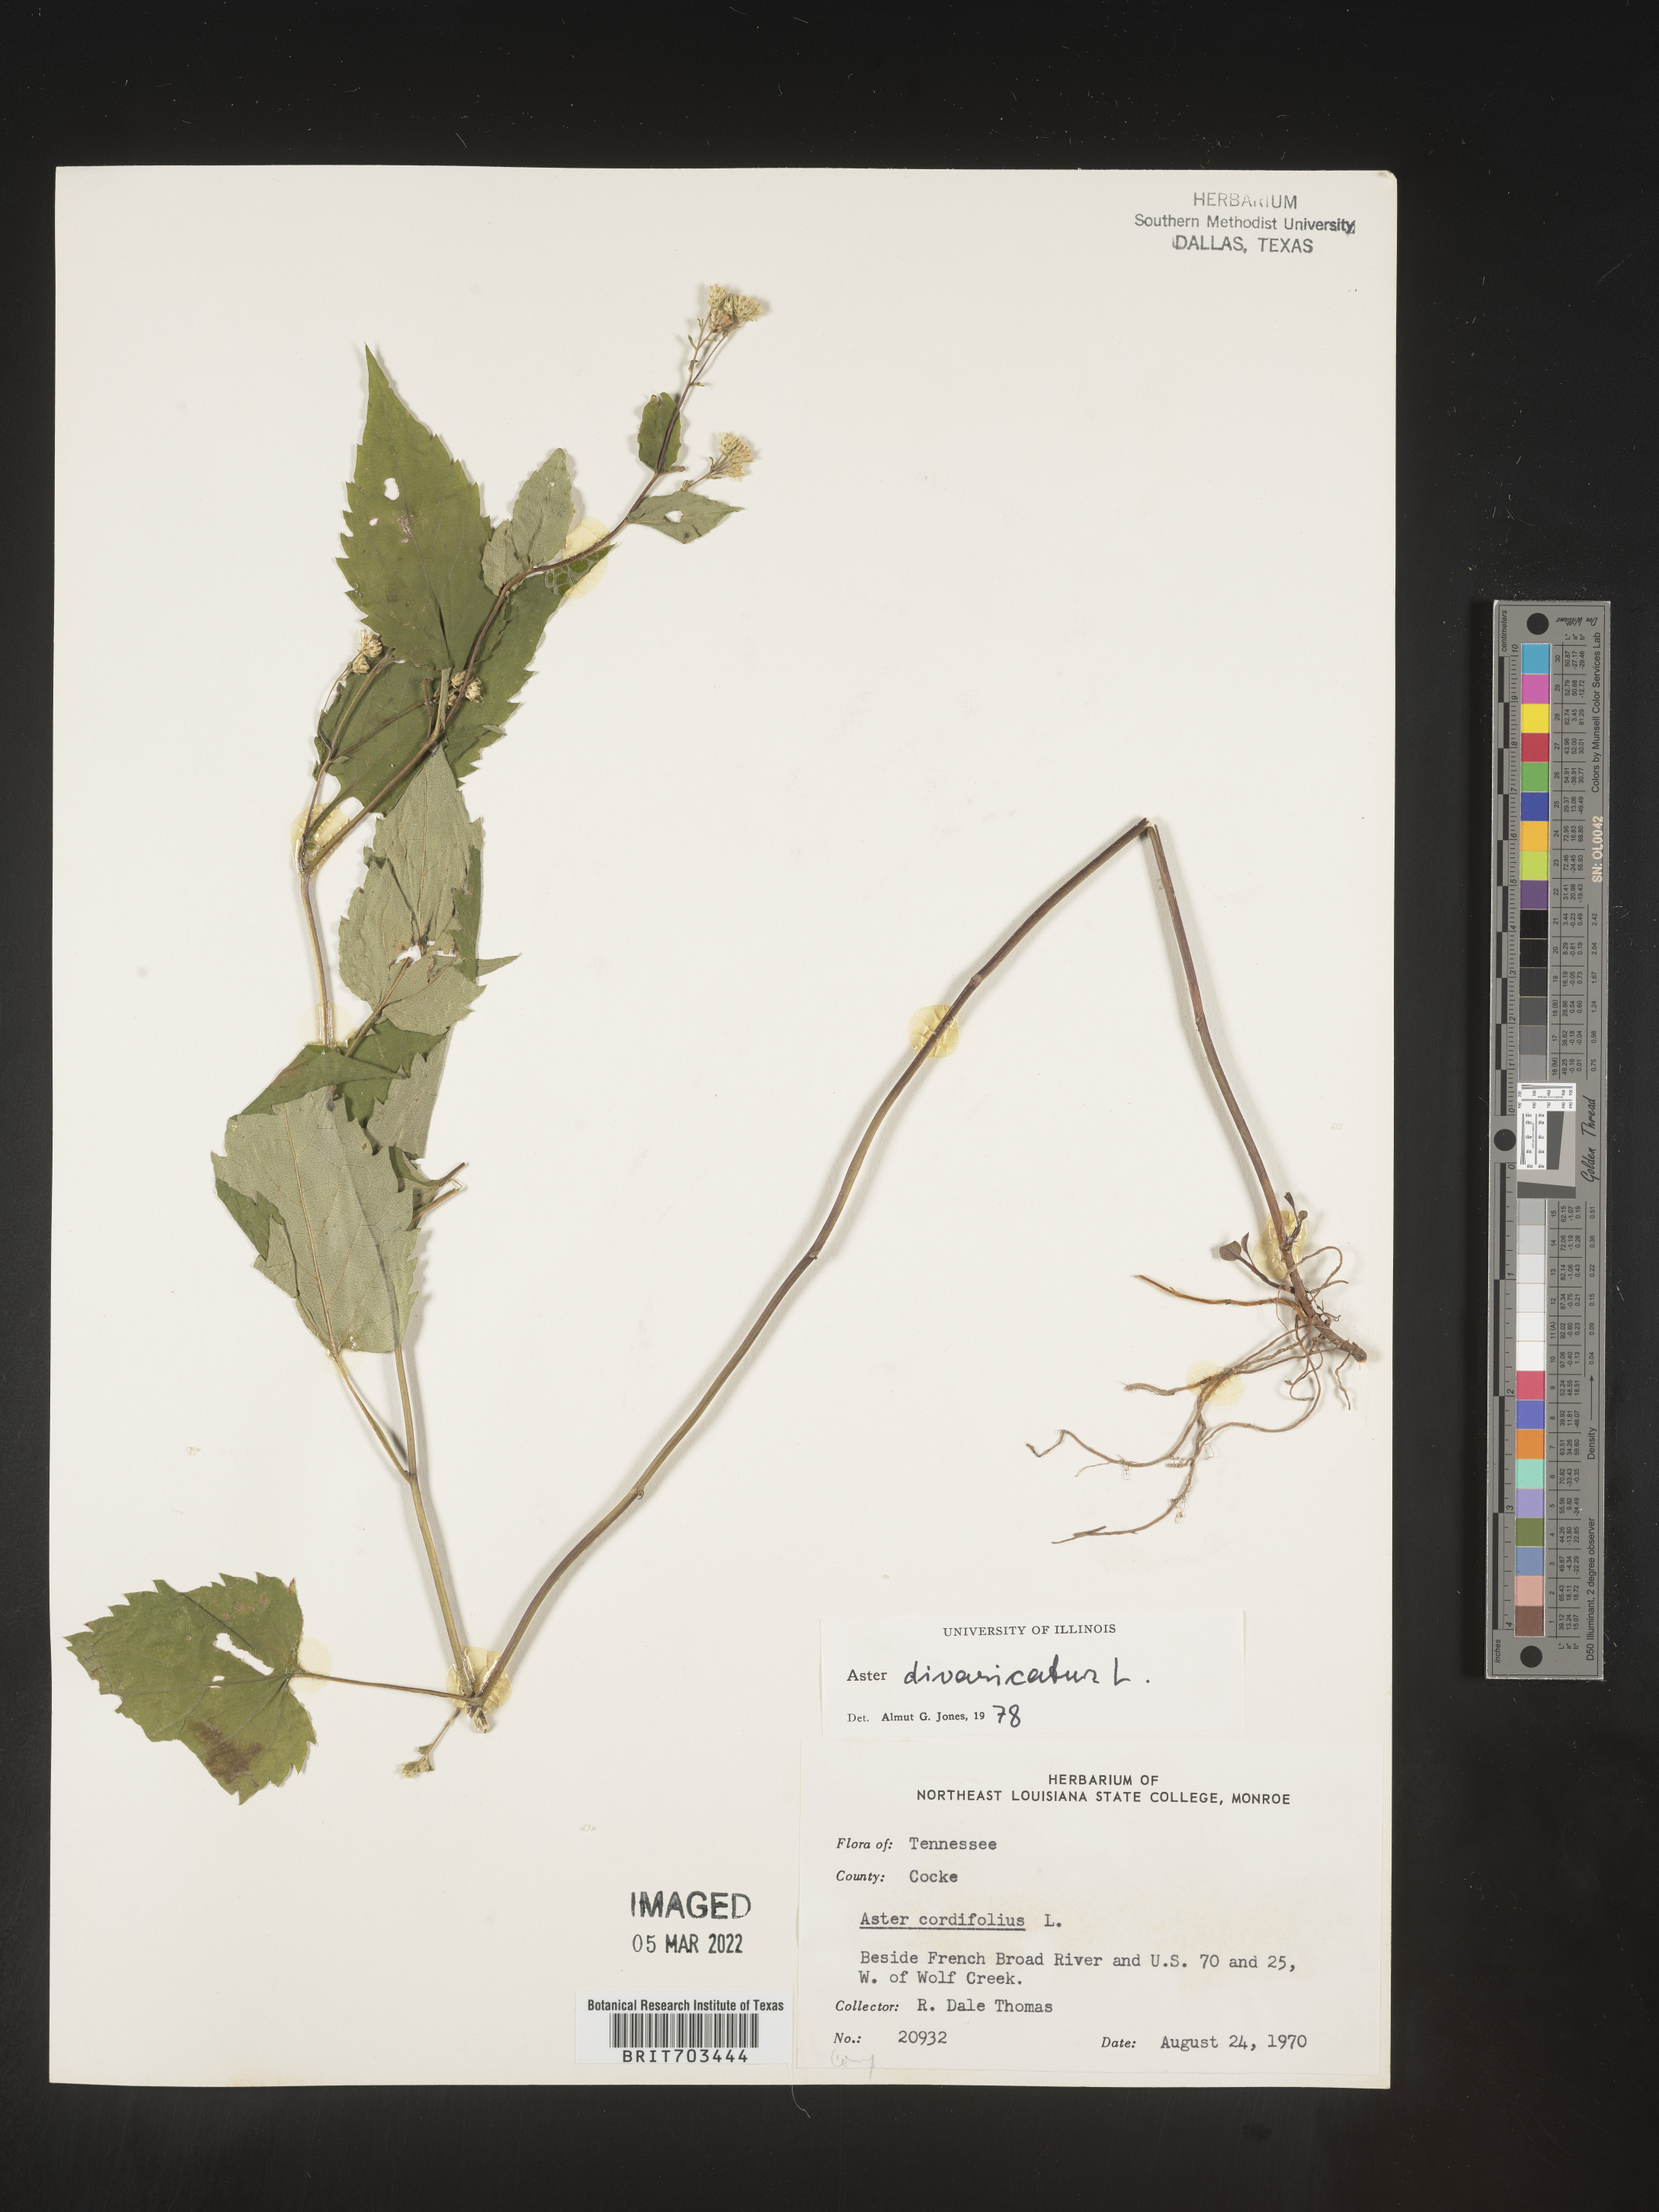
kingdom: Plantae
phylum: Tracheophyta
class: Magnoliopsida
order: Asterales
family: Asteraceae
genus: Eurybia
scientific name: Eurybia divaricata
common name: White wood aster
